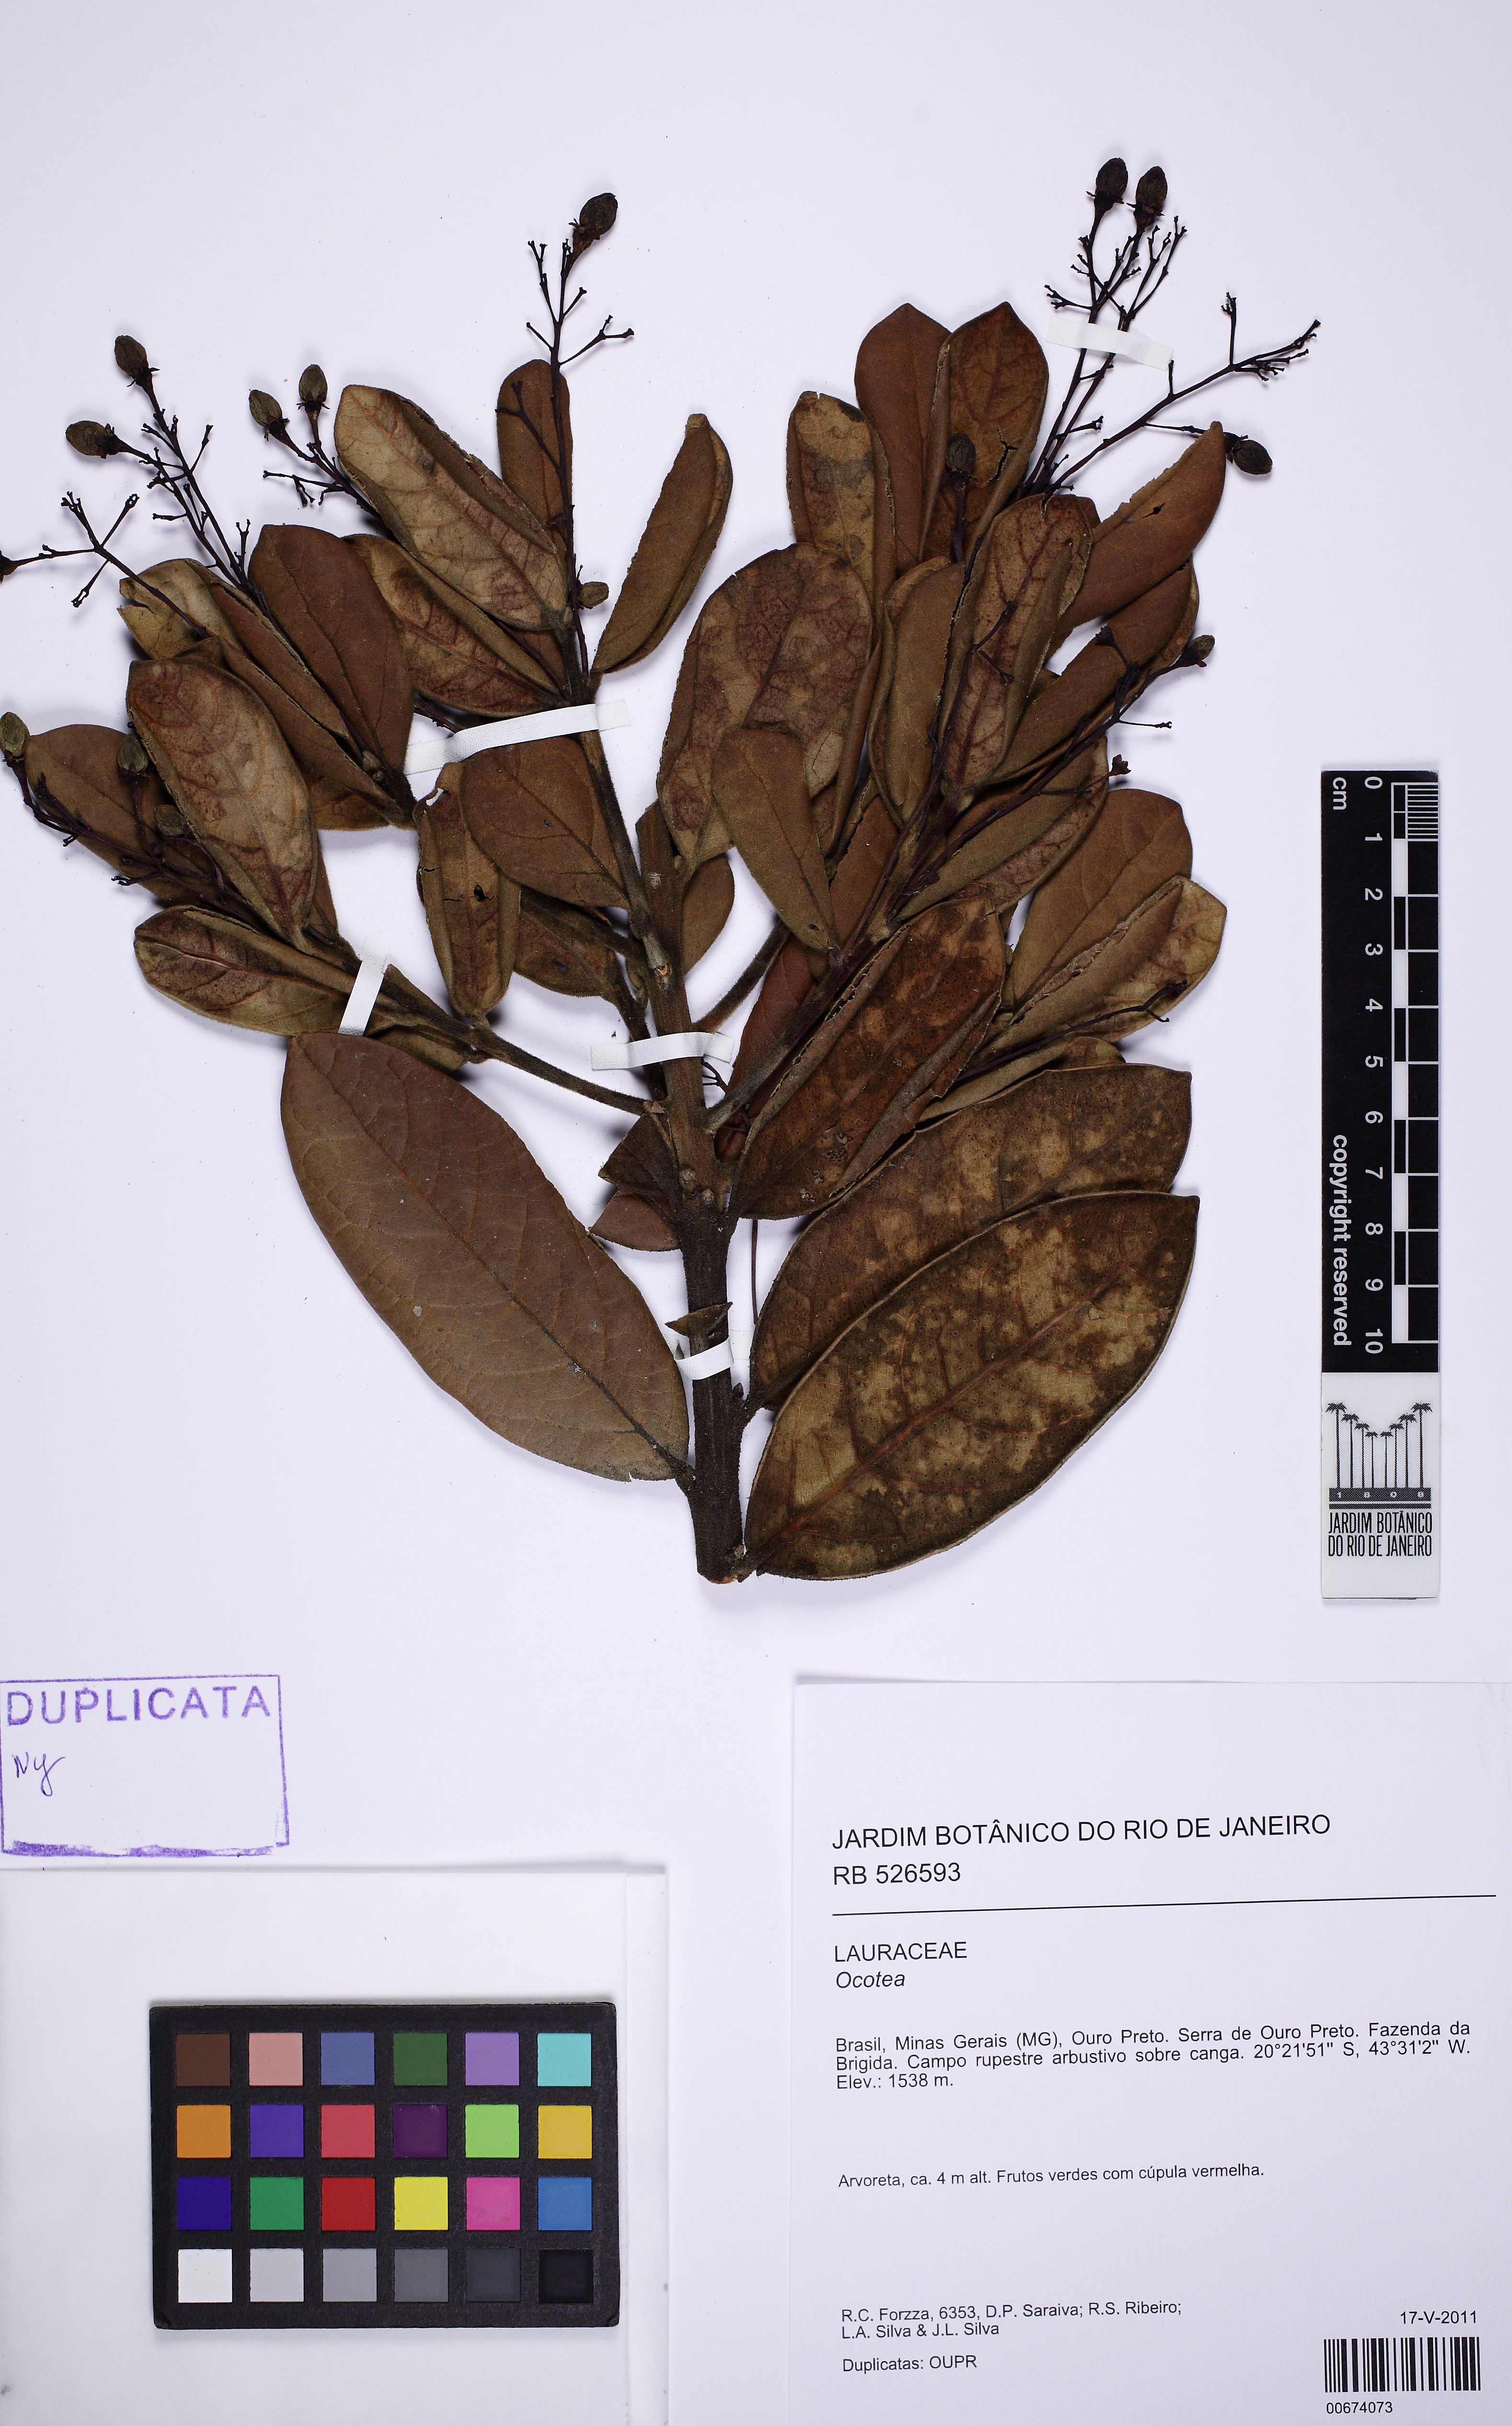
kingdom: Plantae
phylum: Tracheophyta
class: Magnoliopsida
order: Laurales
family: Lauraceae
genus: Aiouea
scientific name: Aiouea erythropus
